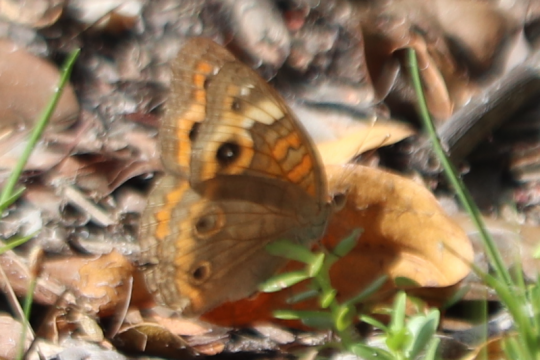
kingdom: Animalia
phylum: Arthropoda
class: Insecta
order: Lepidoptera
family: Nymphalidae
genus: Junonia
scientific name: Junonia lavinia
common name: Tropical Buckeye
